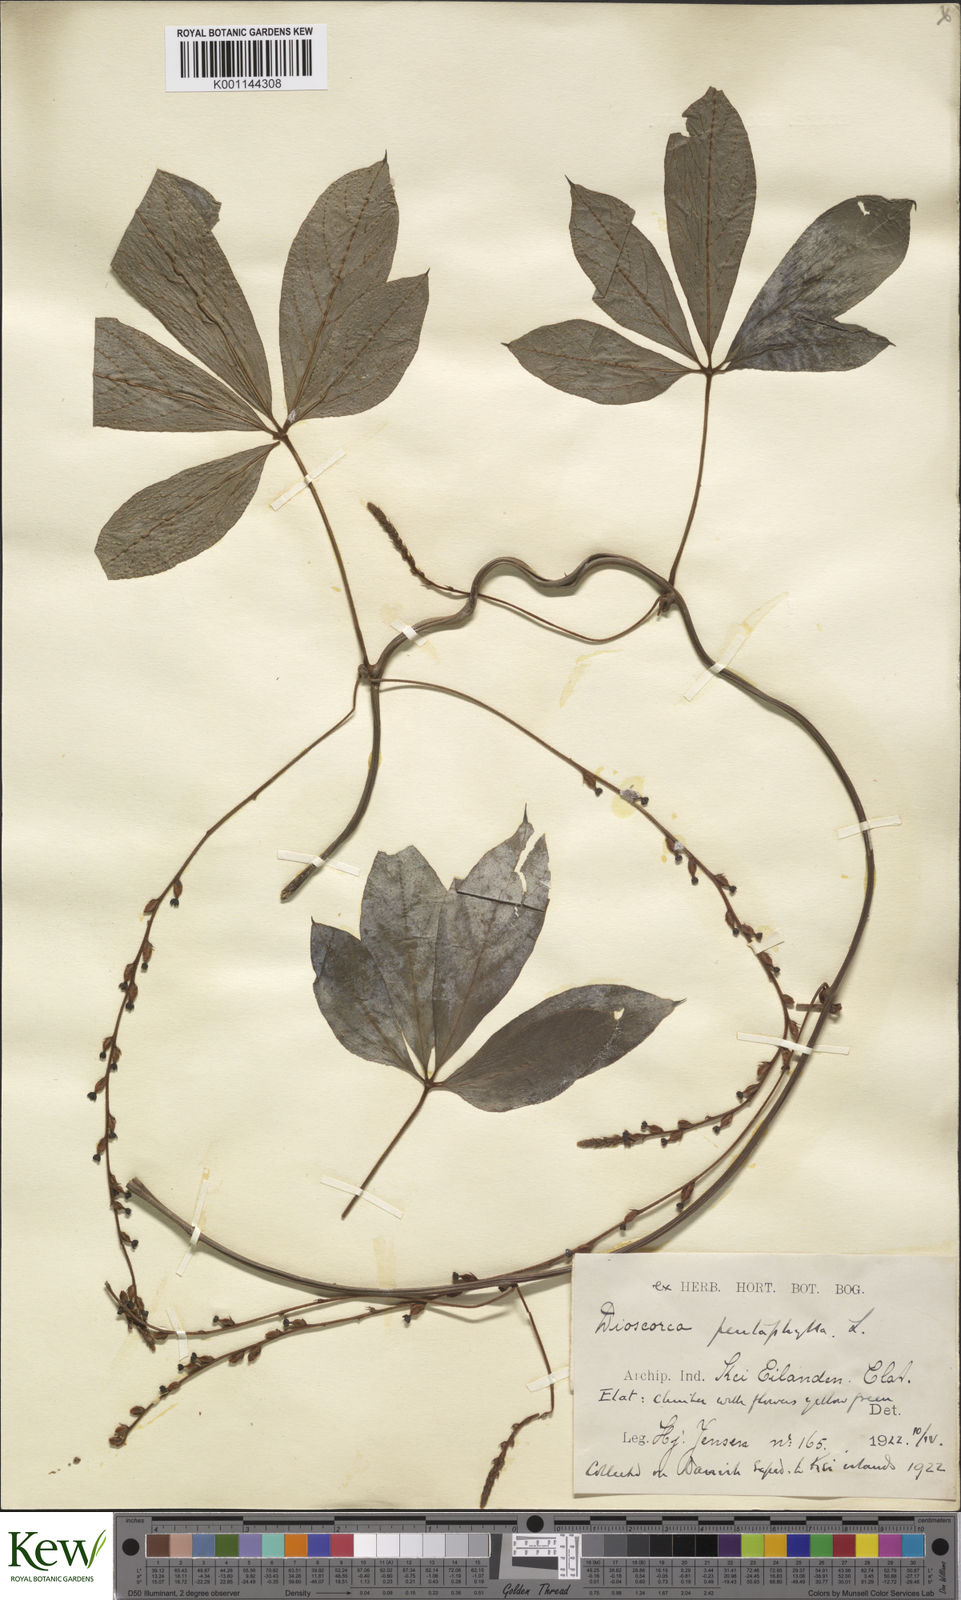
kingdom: Plantae
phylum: Tracheophyta
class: Liliopsida
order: Dioscoreales
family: Dioscoreaceae
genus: Dioscorea
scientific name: Dioscorea pentaphylla
